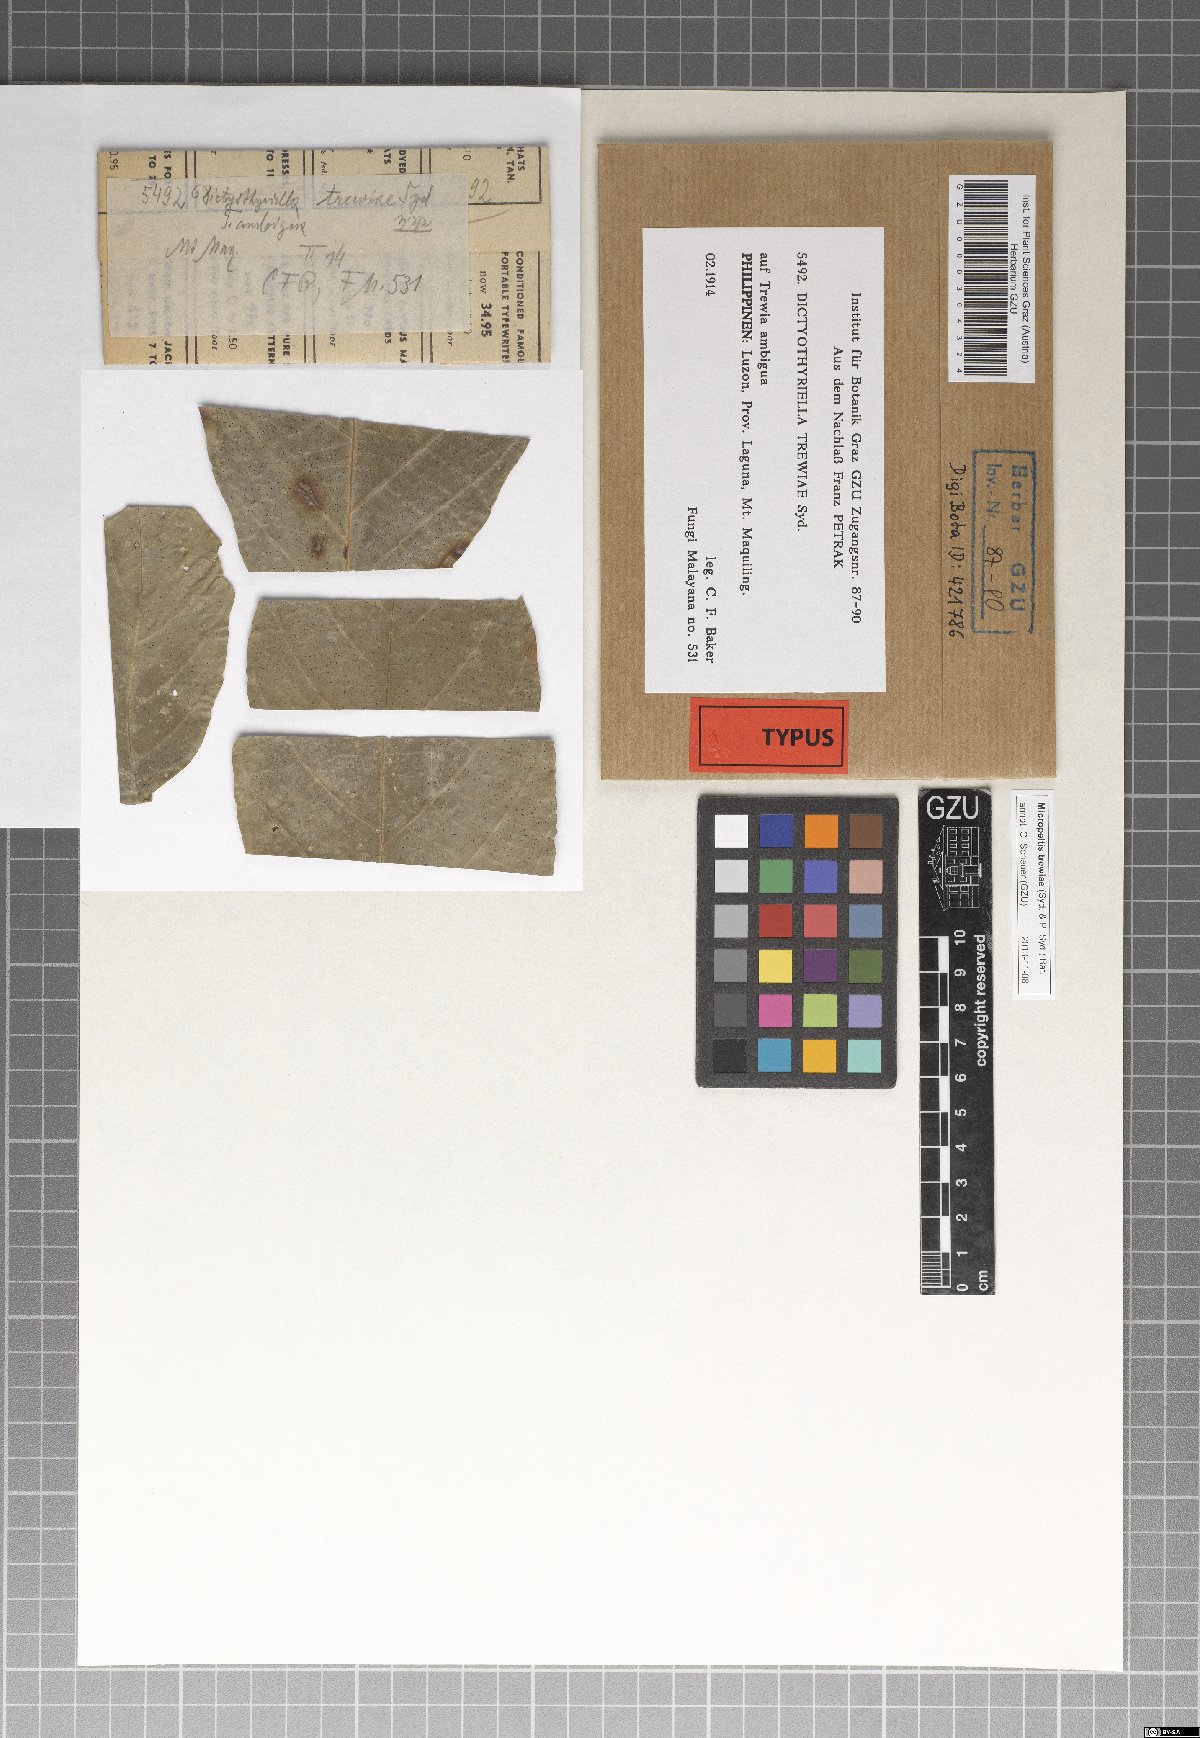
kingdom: Fungi
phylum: Ascomycota
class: Dothideomycetes
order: Microthyriales
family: Micropeltidaceae
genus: Micropeltis
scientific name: Micropeltis trewiae
